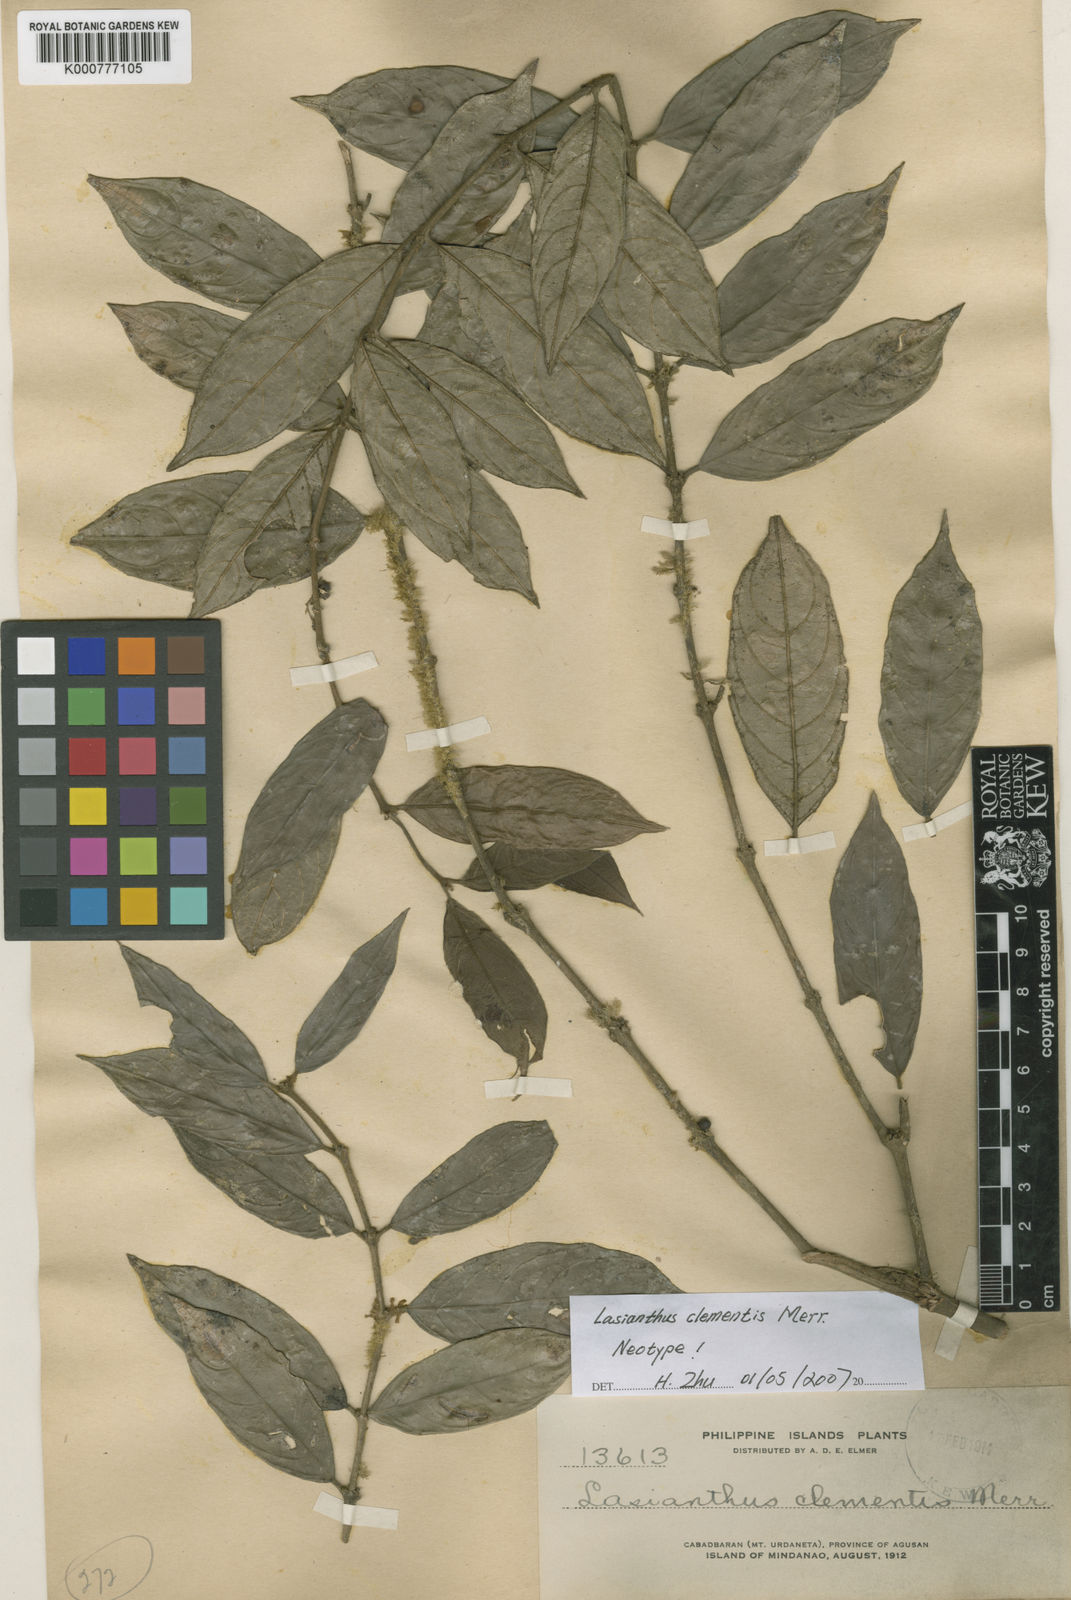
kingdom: Plantae
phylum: Tracheophyta
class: Magnoliopsida
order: Gentianales
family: Rubiaceae
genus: Lasianthus
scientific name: Lasianthus clementis
